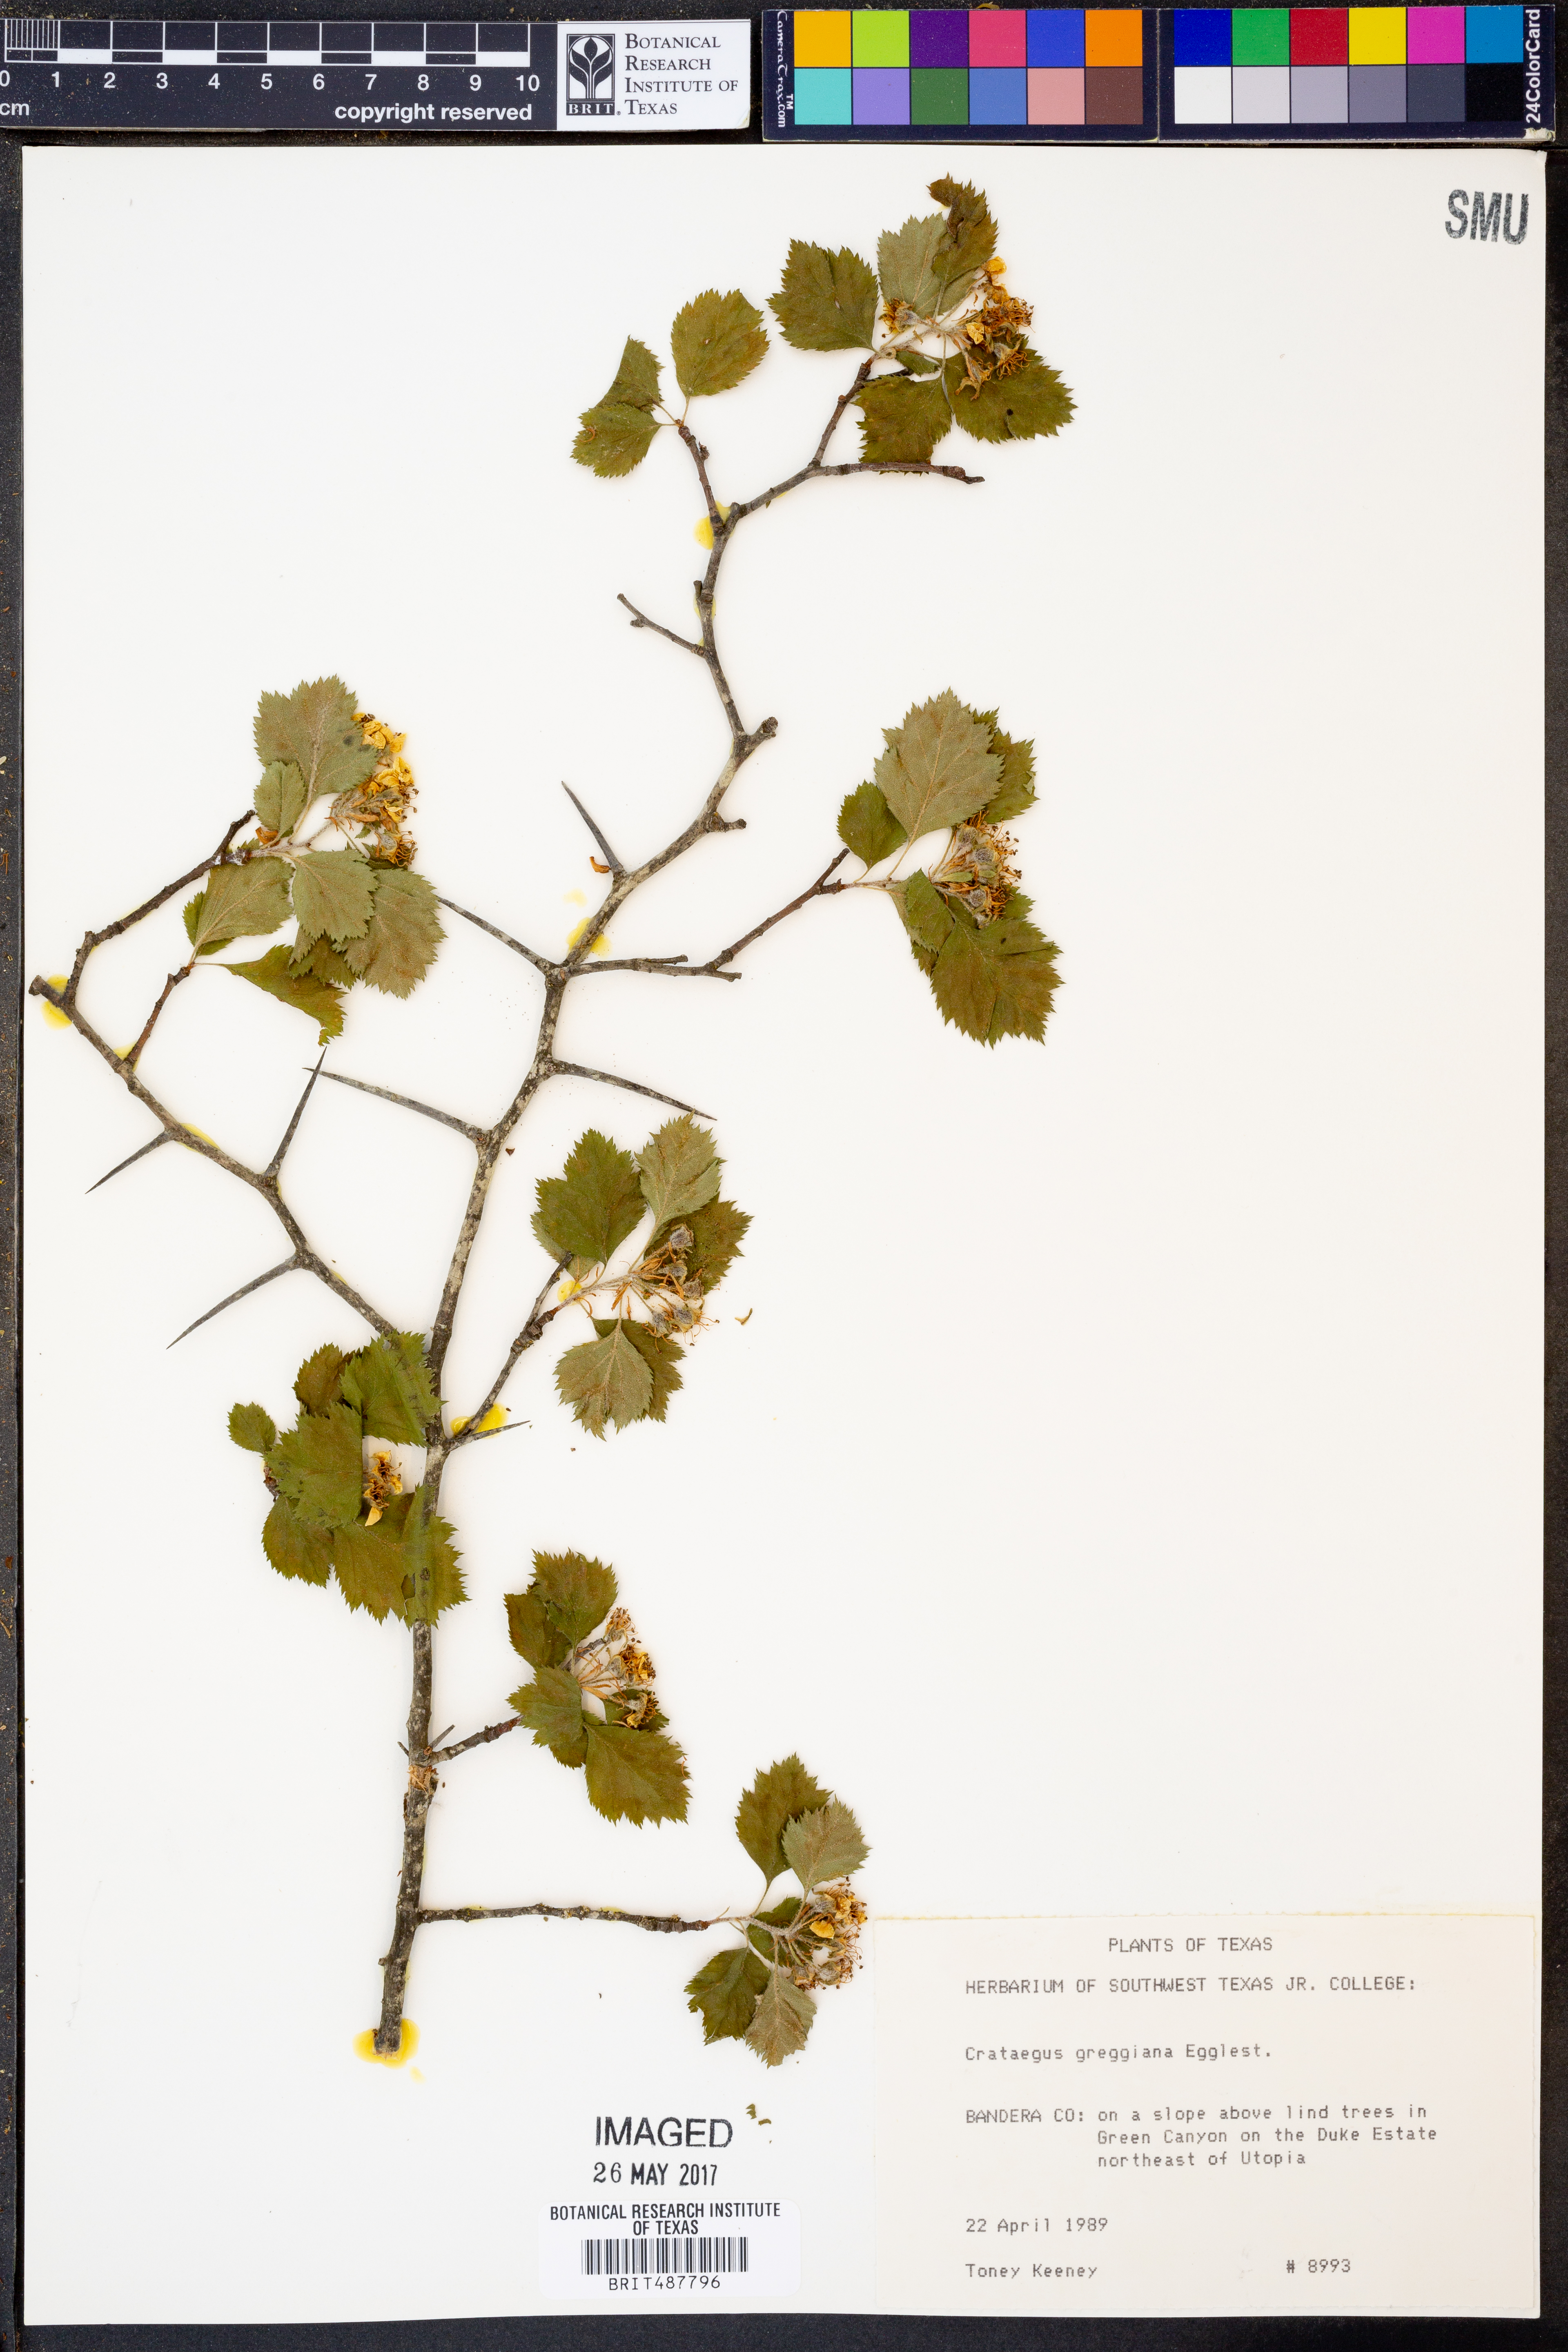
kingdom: Plantae
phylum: Tracheophyta
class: Magnoliopsida
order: Rosales
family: Rosaceae
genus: Crataegus
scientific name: Crataegus greggiana
